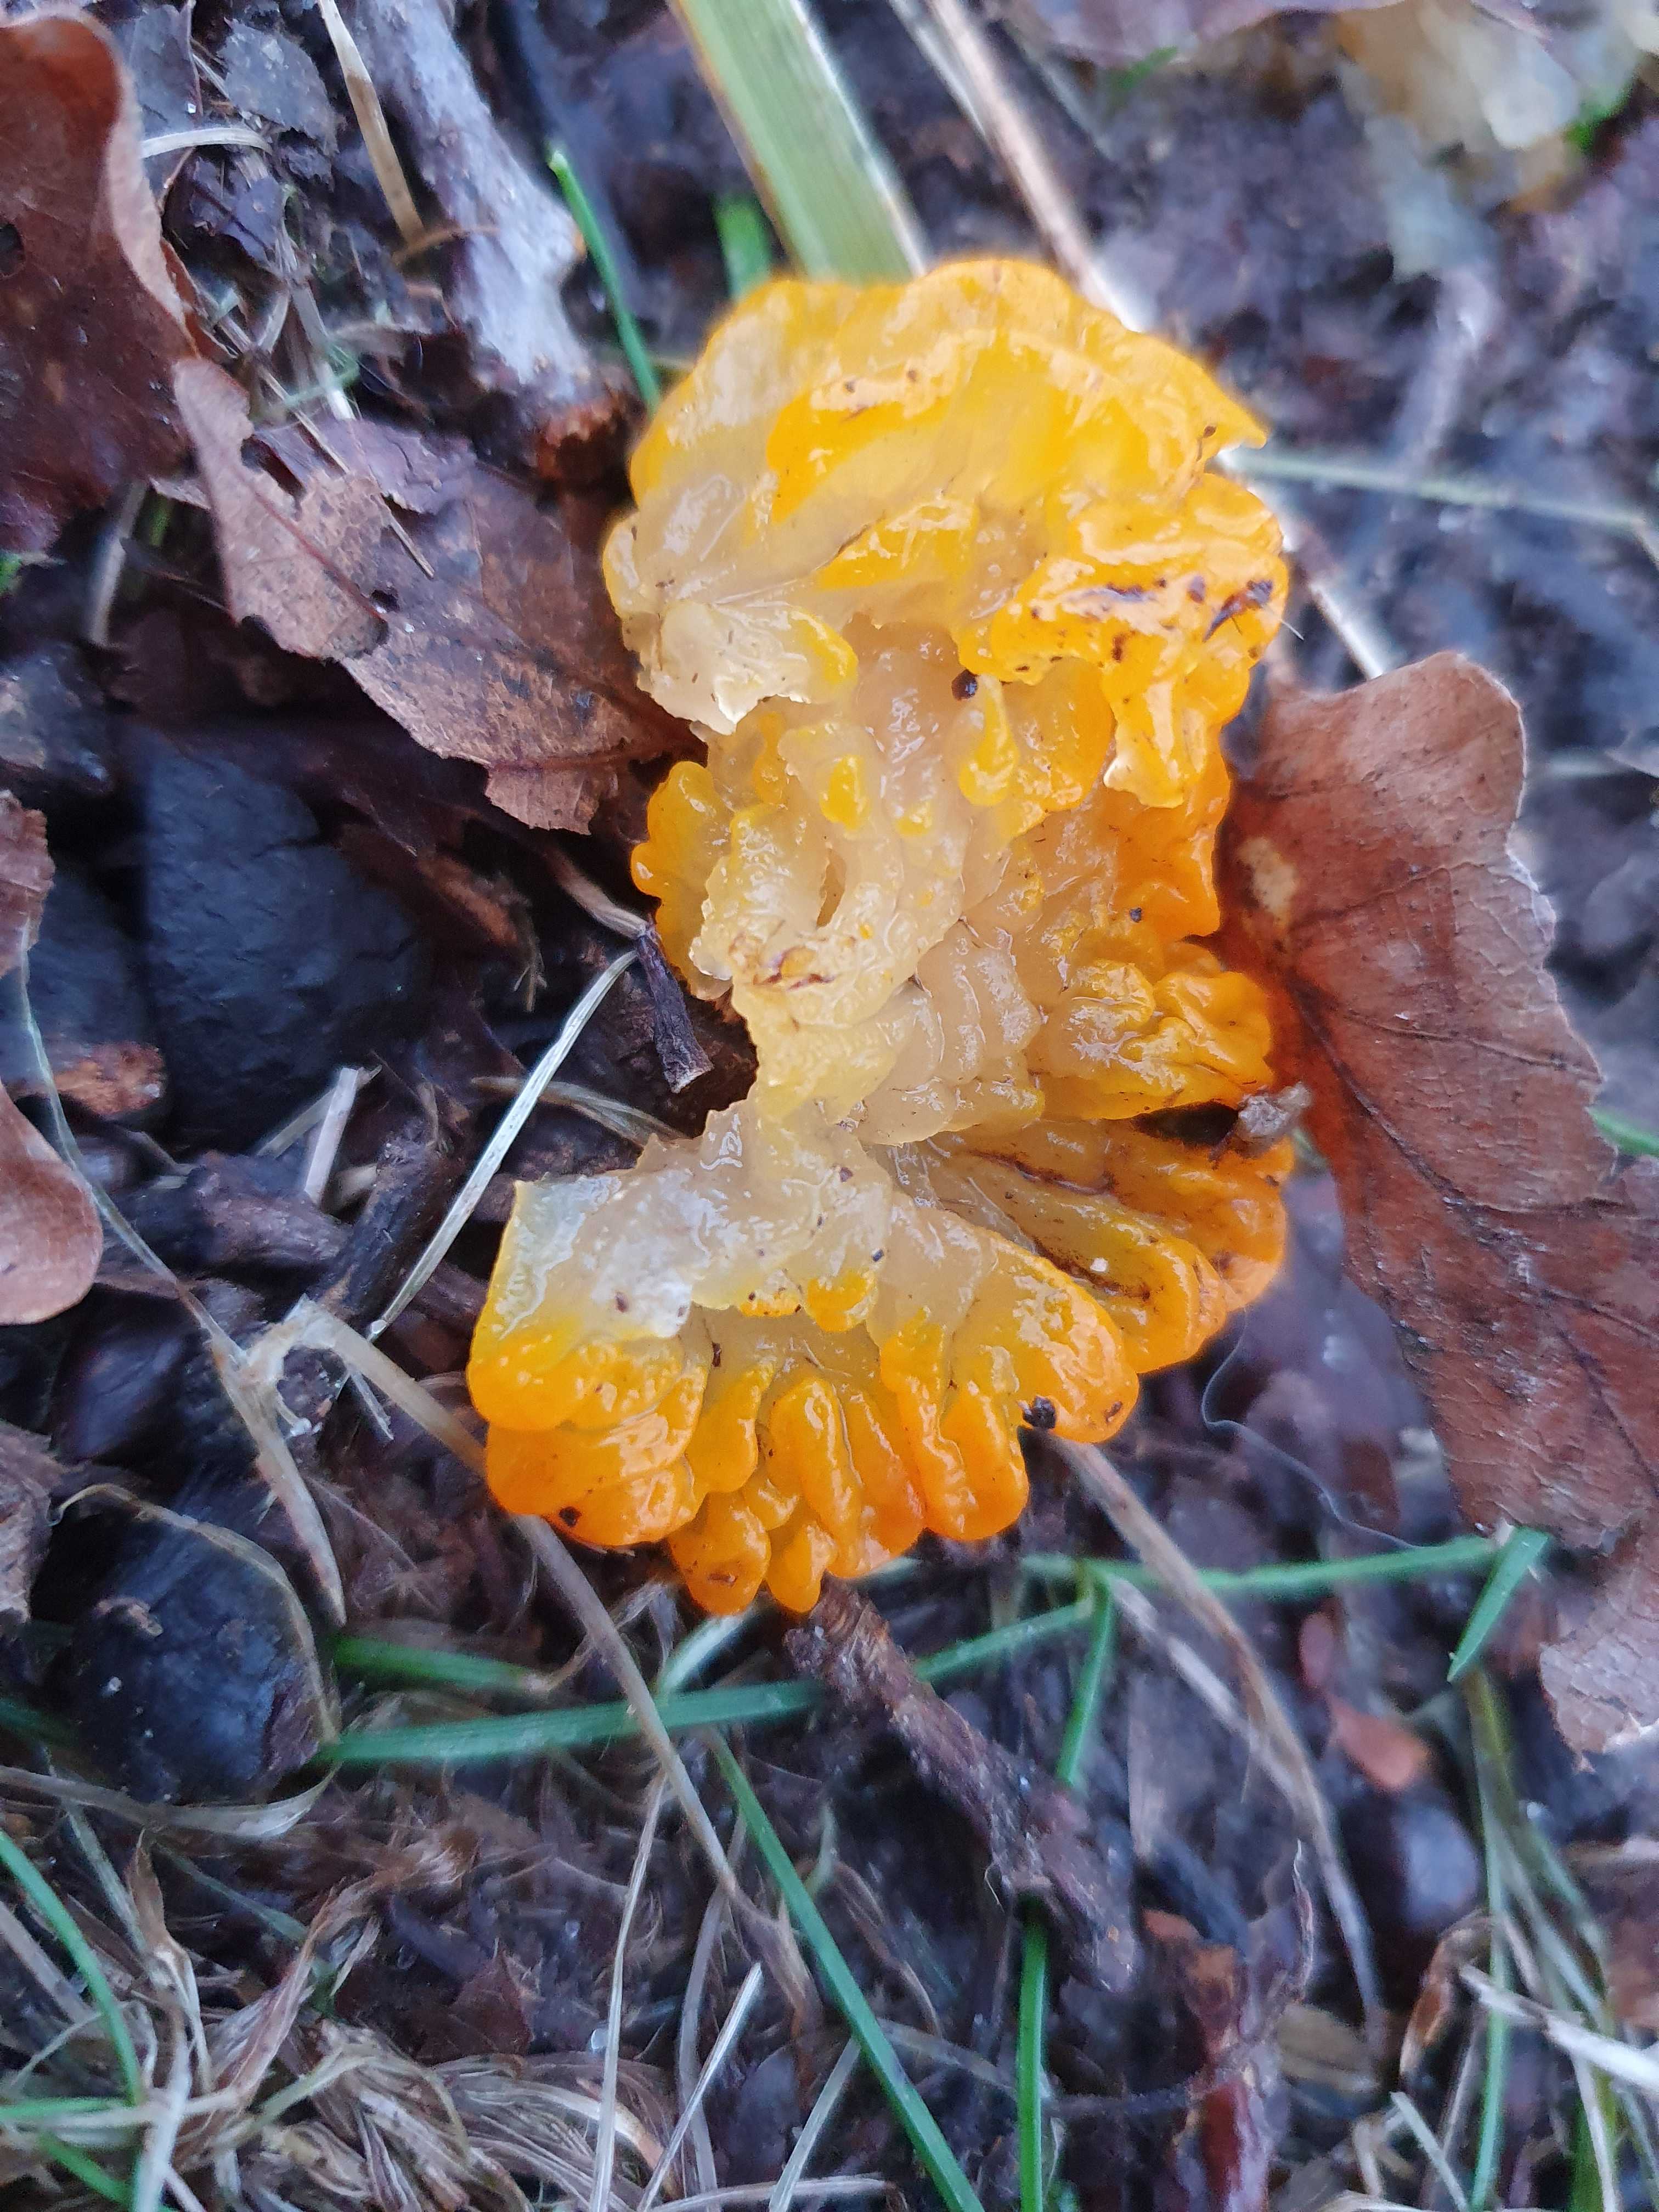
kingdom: Fungi
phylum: Basidiomycota
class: Tremellomycetes
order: Tremellales
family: Tremellaceae
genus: Tremella
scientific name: Tremella mesenterica
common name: gul bævresvamp
